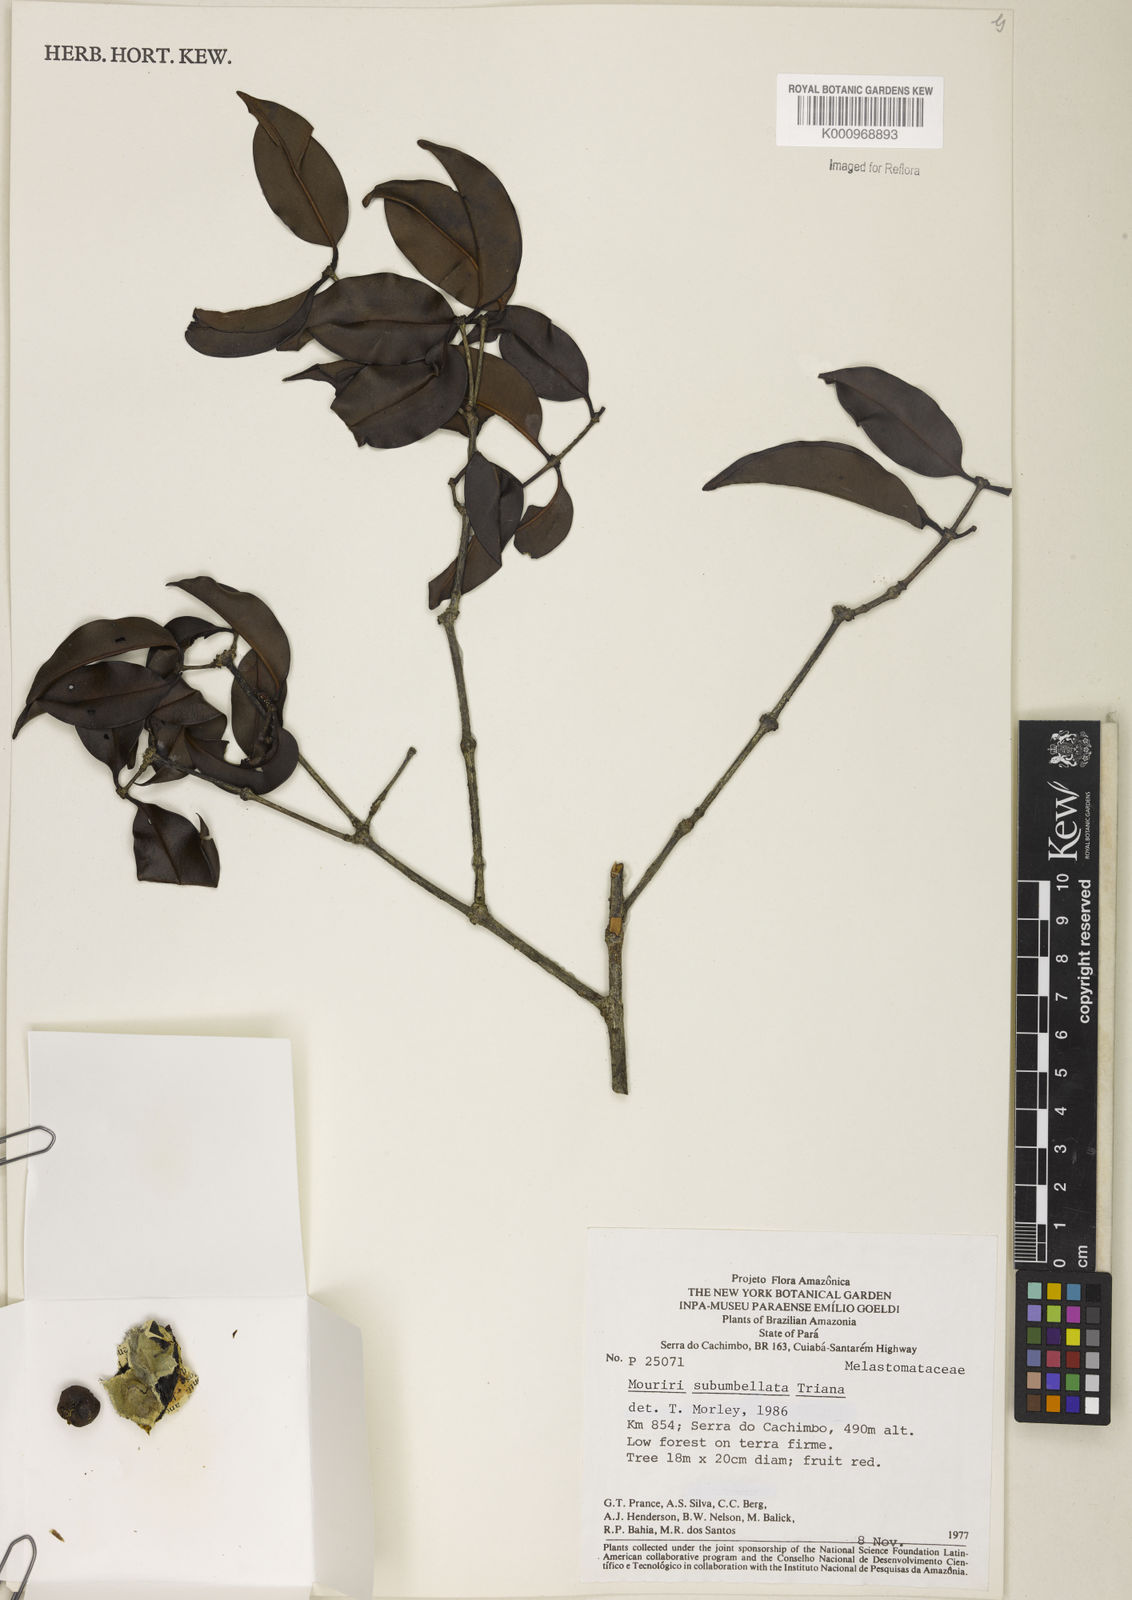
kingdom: Plantae
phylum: Tracheophyta
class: Magnoliopsida
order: Myrtales
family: Melastomataceae
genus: Mouriri
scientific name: Mouriri subumbellata
